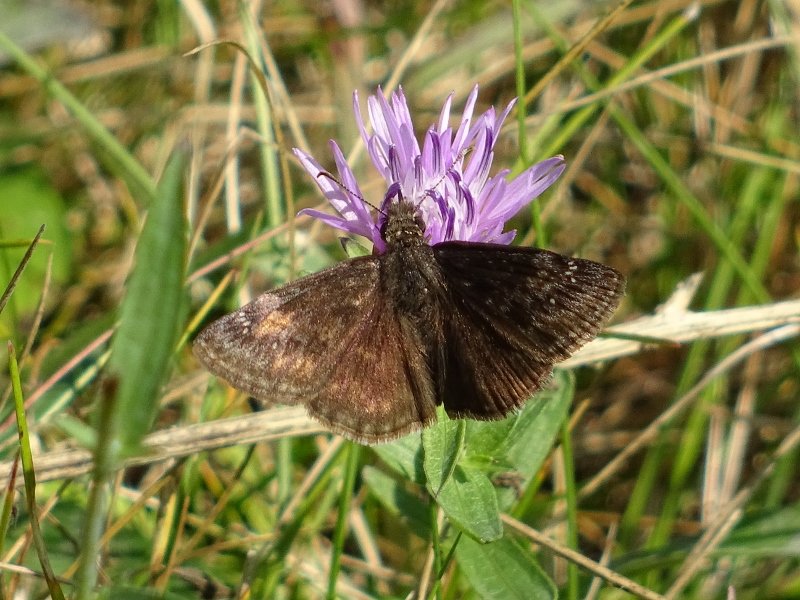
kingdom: Animalia
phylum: Arthropoda
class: Insecta
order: Lepidoptera
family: Hesperiidae
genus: Gesta
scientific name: Gesta
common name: Wild Indigo Duskywing
